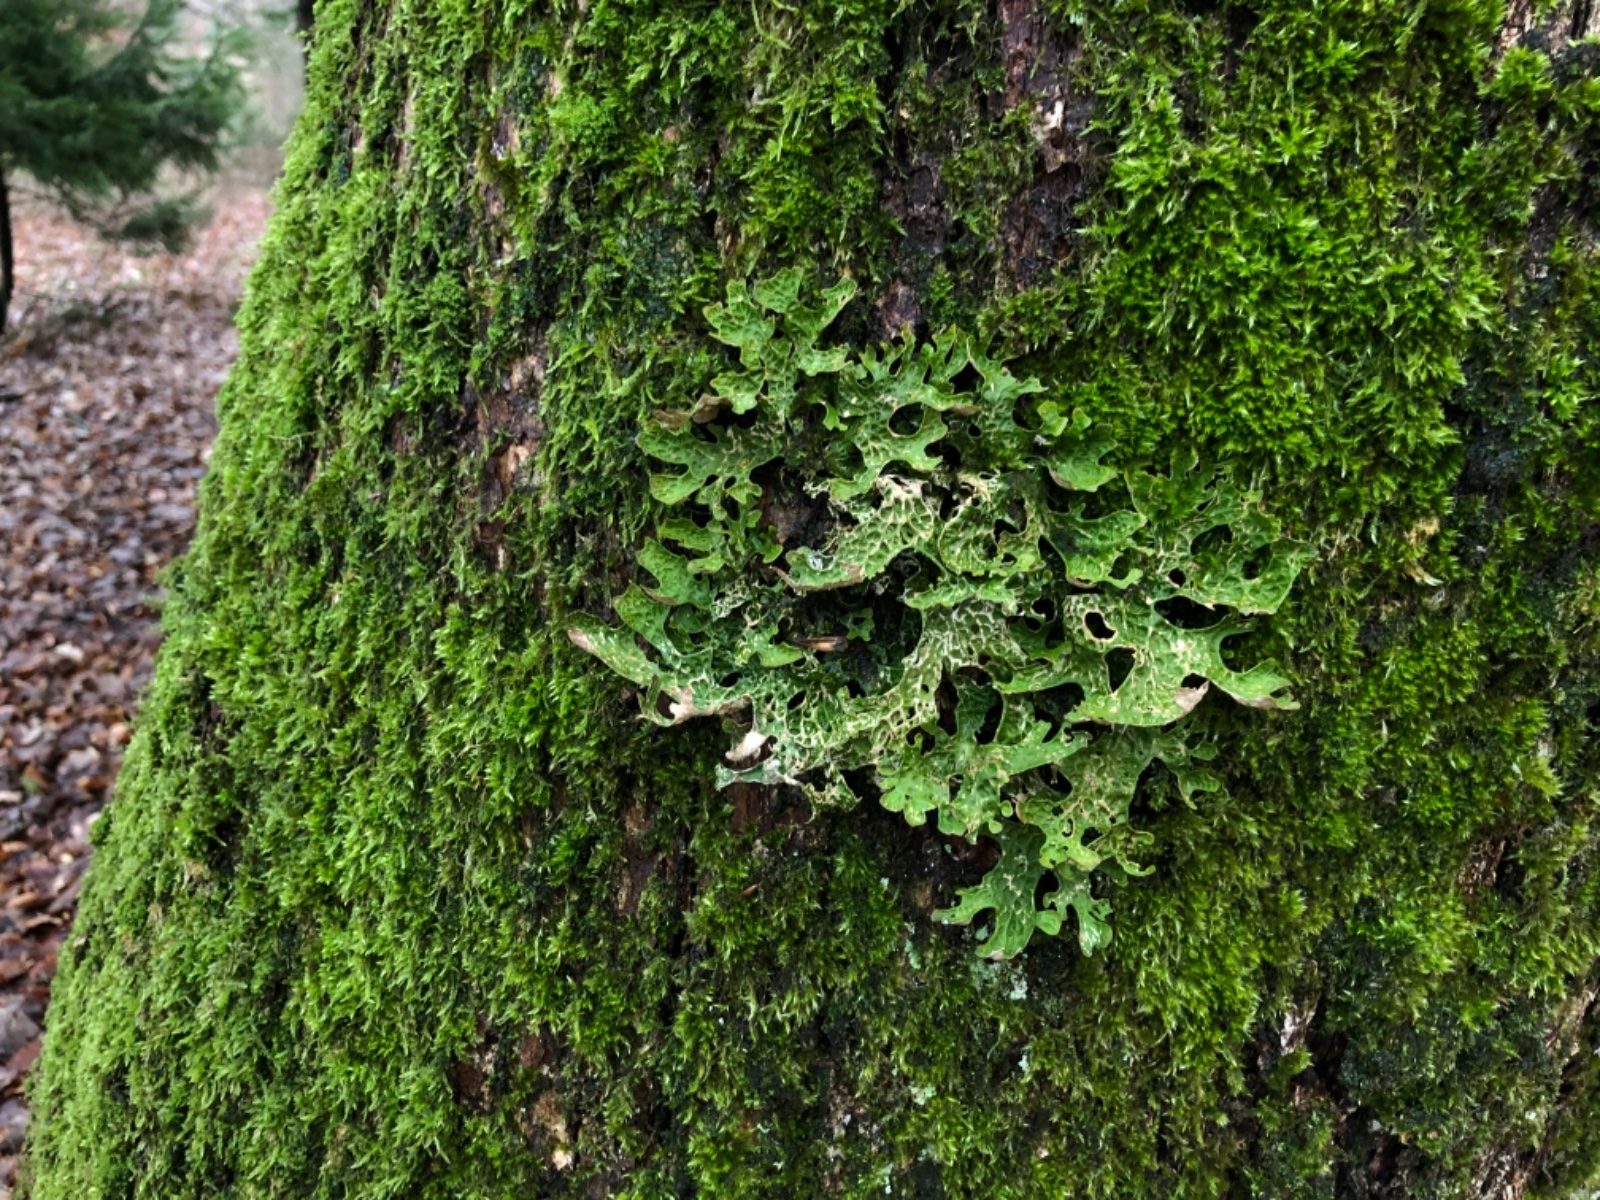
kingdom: Fungi
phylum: Ascomycota
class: Lecanoromycetes
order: Peltigerales
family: Lobariaceae
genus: Lobaria
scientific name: Lobaria pulmonaria
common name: almindelig lungelav
